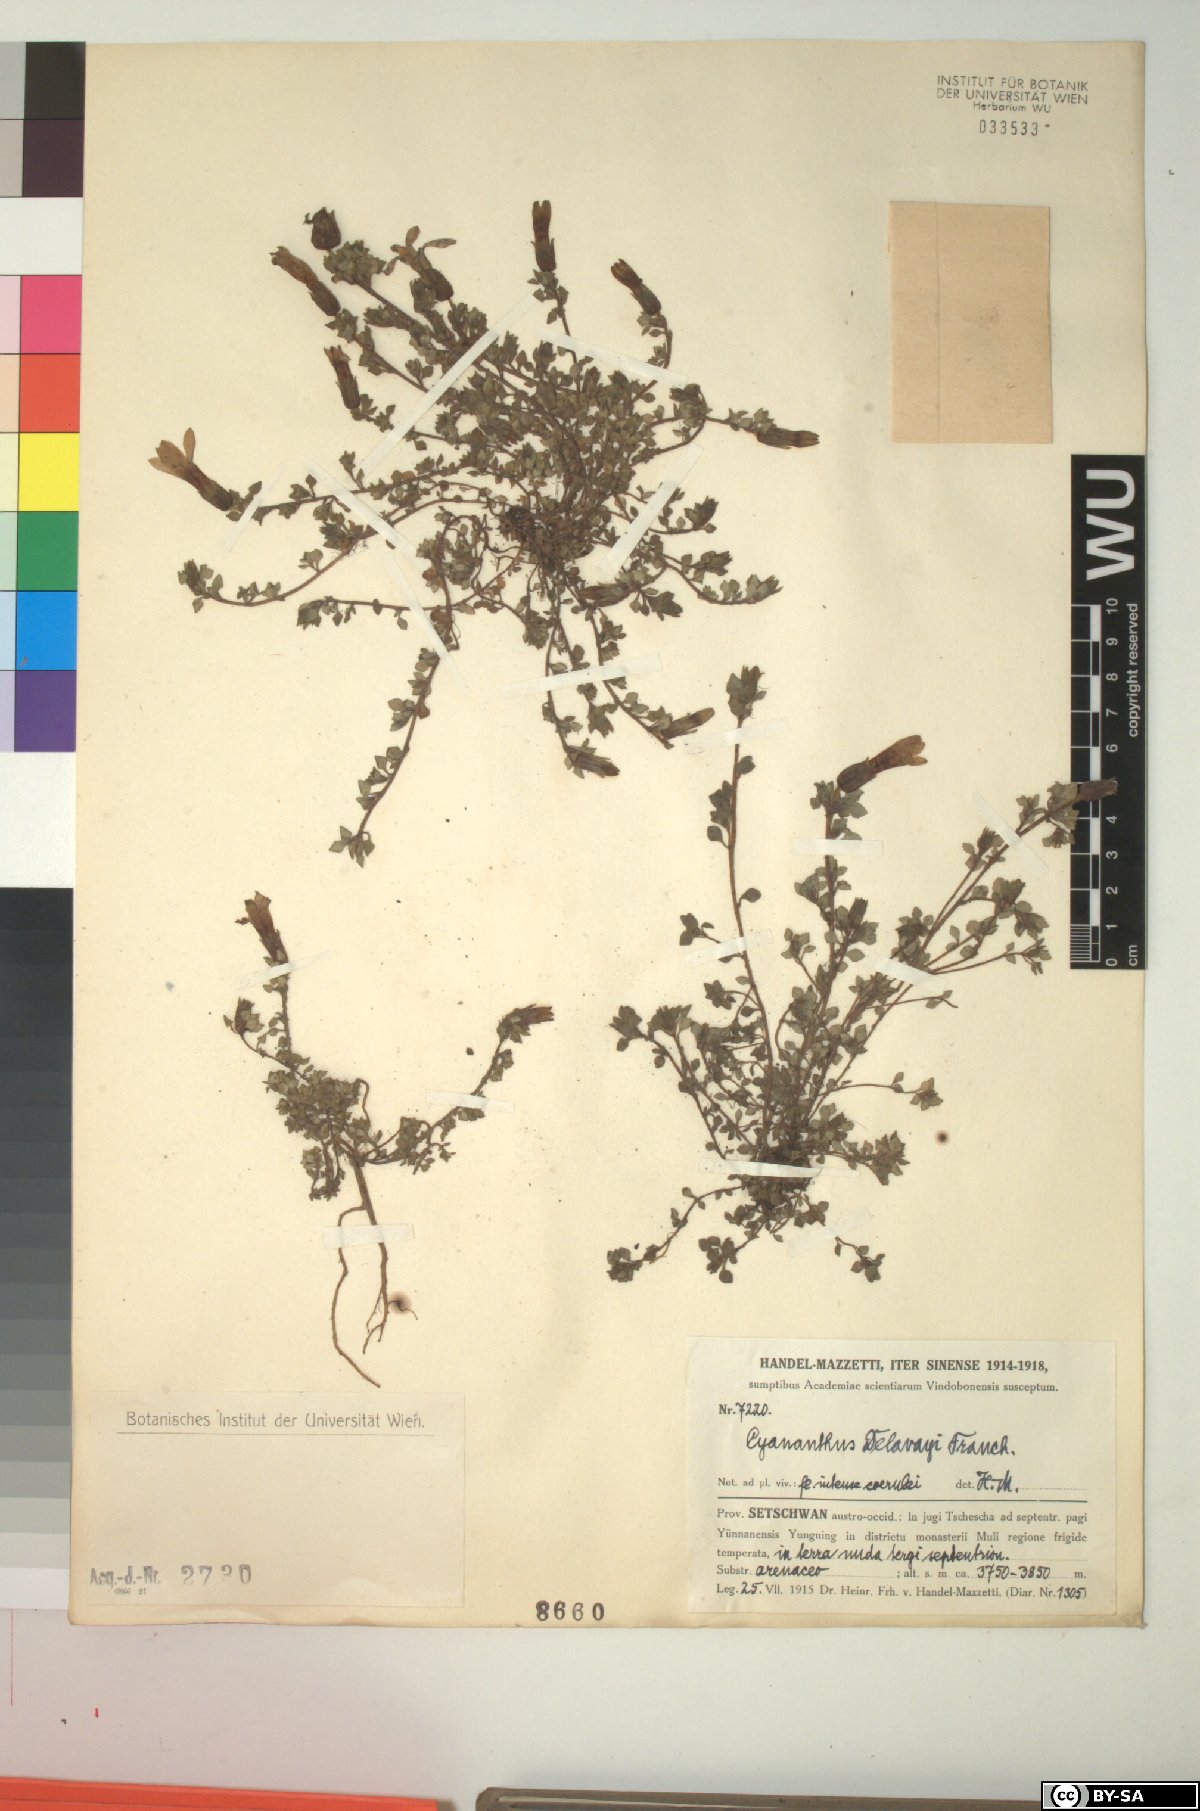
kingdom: Plantae
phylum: Tracheophyta
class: Magnoliopsida
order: Asterales
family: Campanulaceae
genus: Cyananthus
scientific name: Cyananthus delavayi
